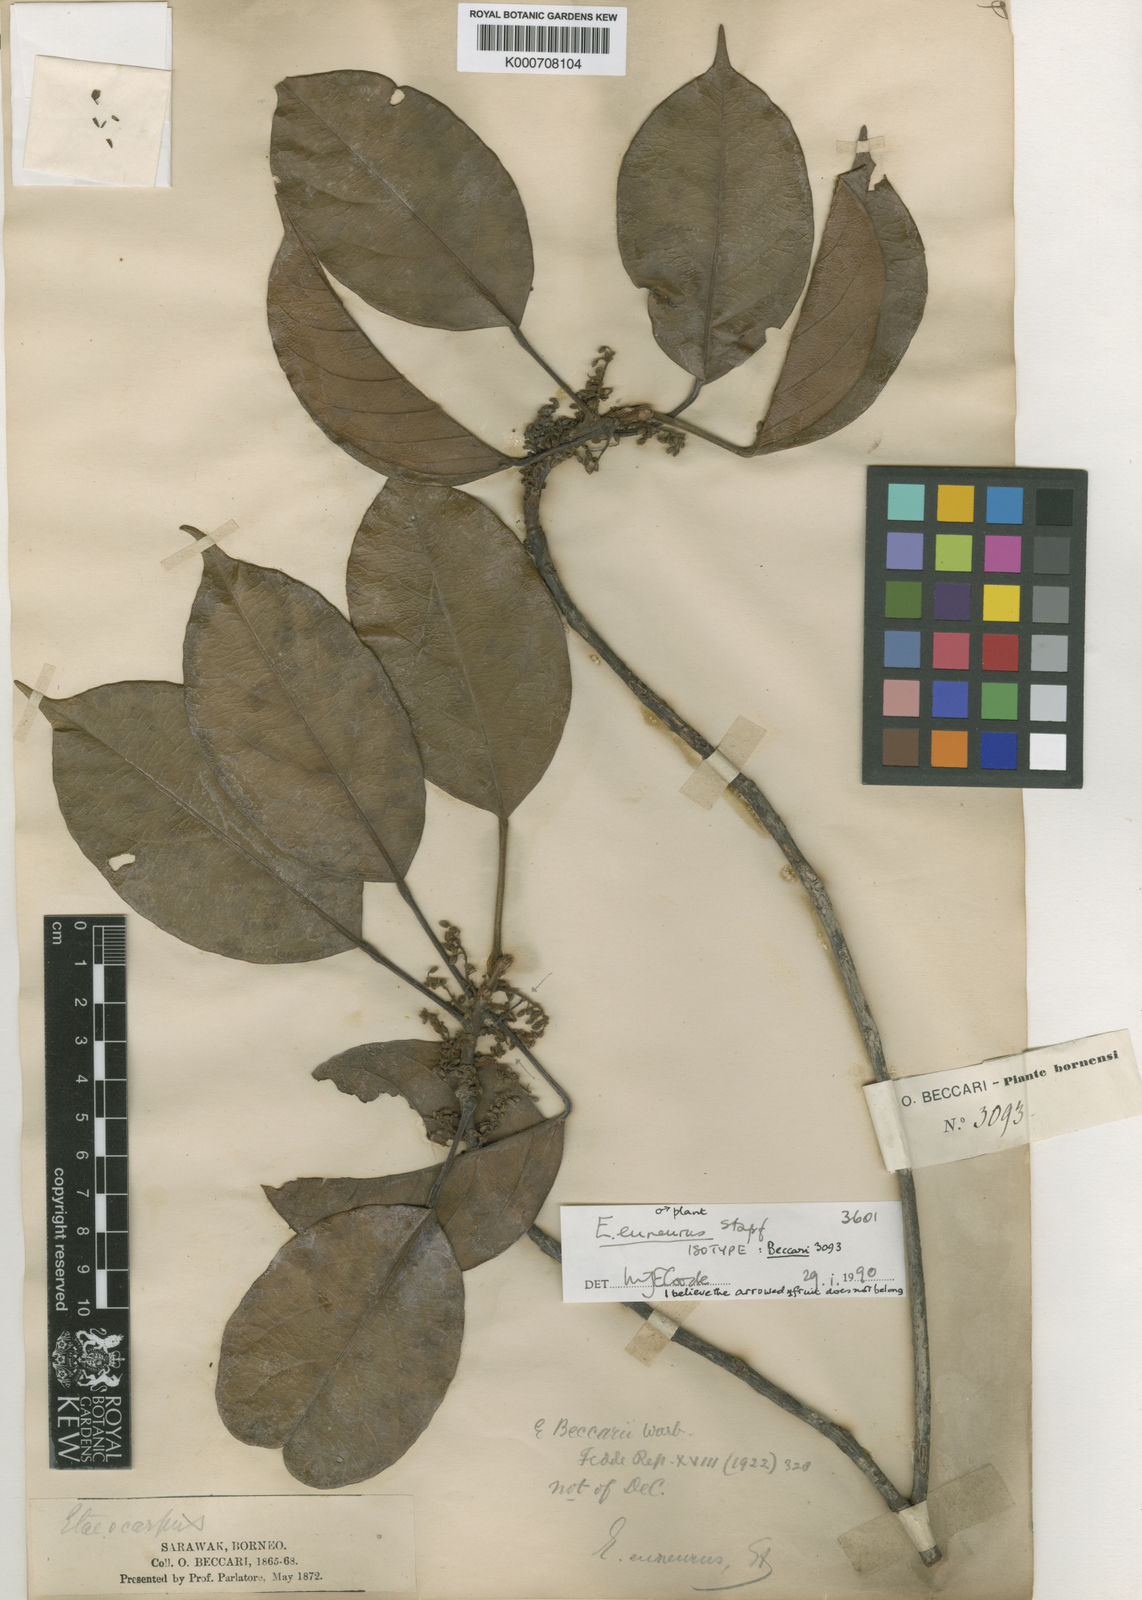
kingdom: Plantae
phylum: Tracheophyta
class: Magnoliopsida
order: Oxalidales
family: Elaeocarpaceae
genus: Elaeocarpus
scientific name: Elaeocarpus euneurus
